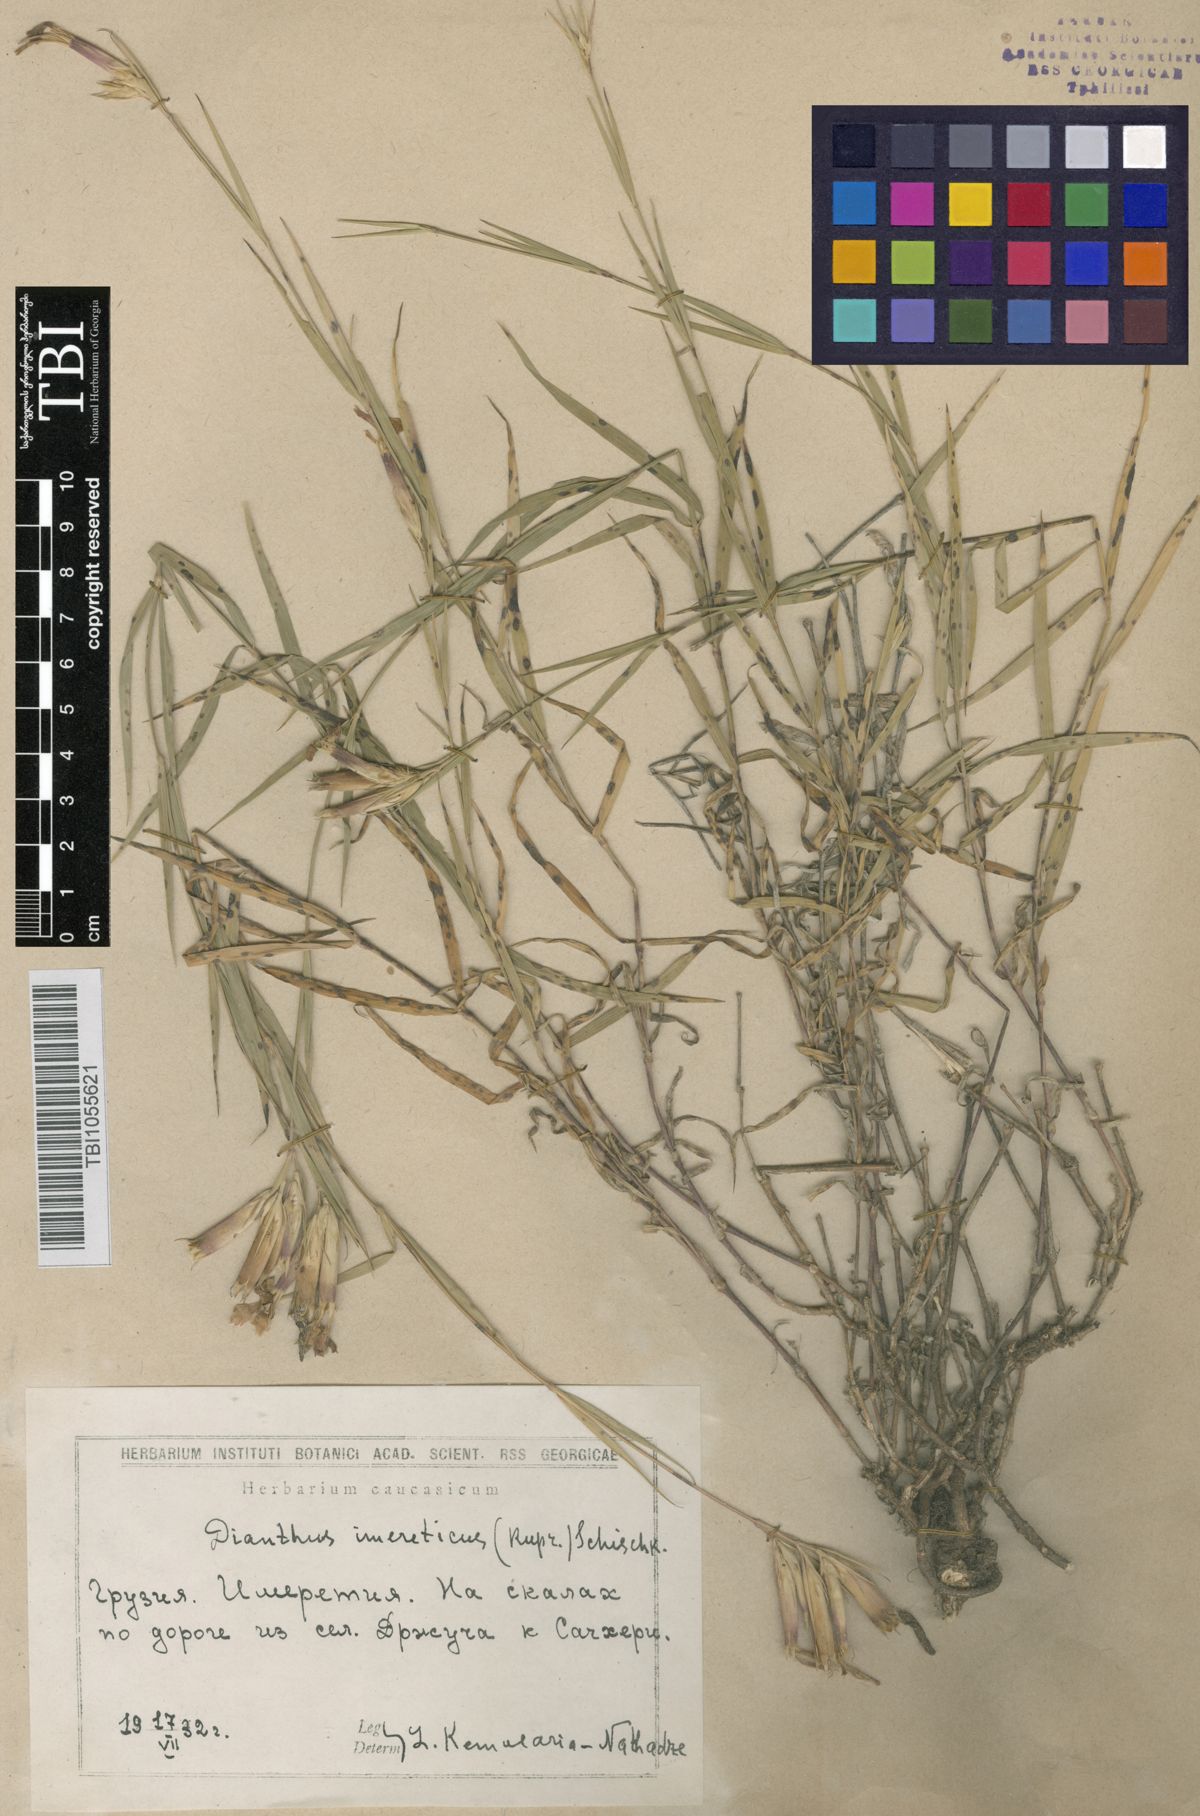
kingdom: Plantae
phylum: Tracheophyta
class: Magnoliopsida
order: Caryophyllales
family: Caryophyllaceae
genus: Dianthus
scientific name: Dianthus imereticus
